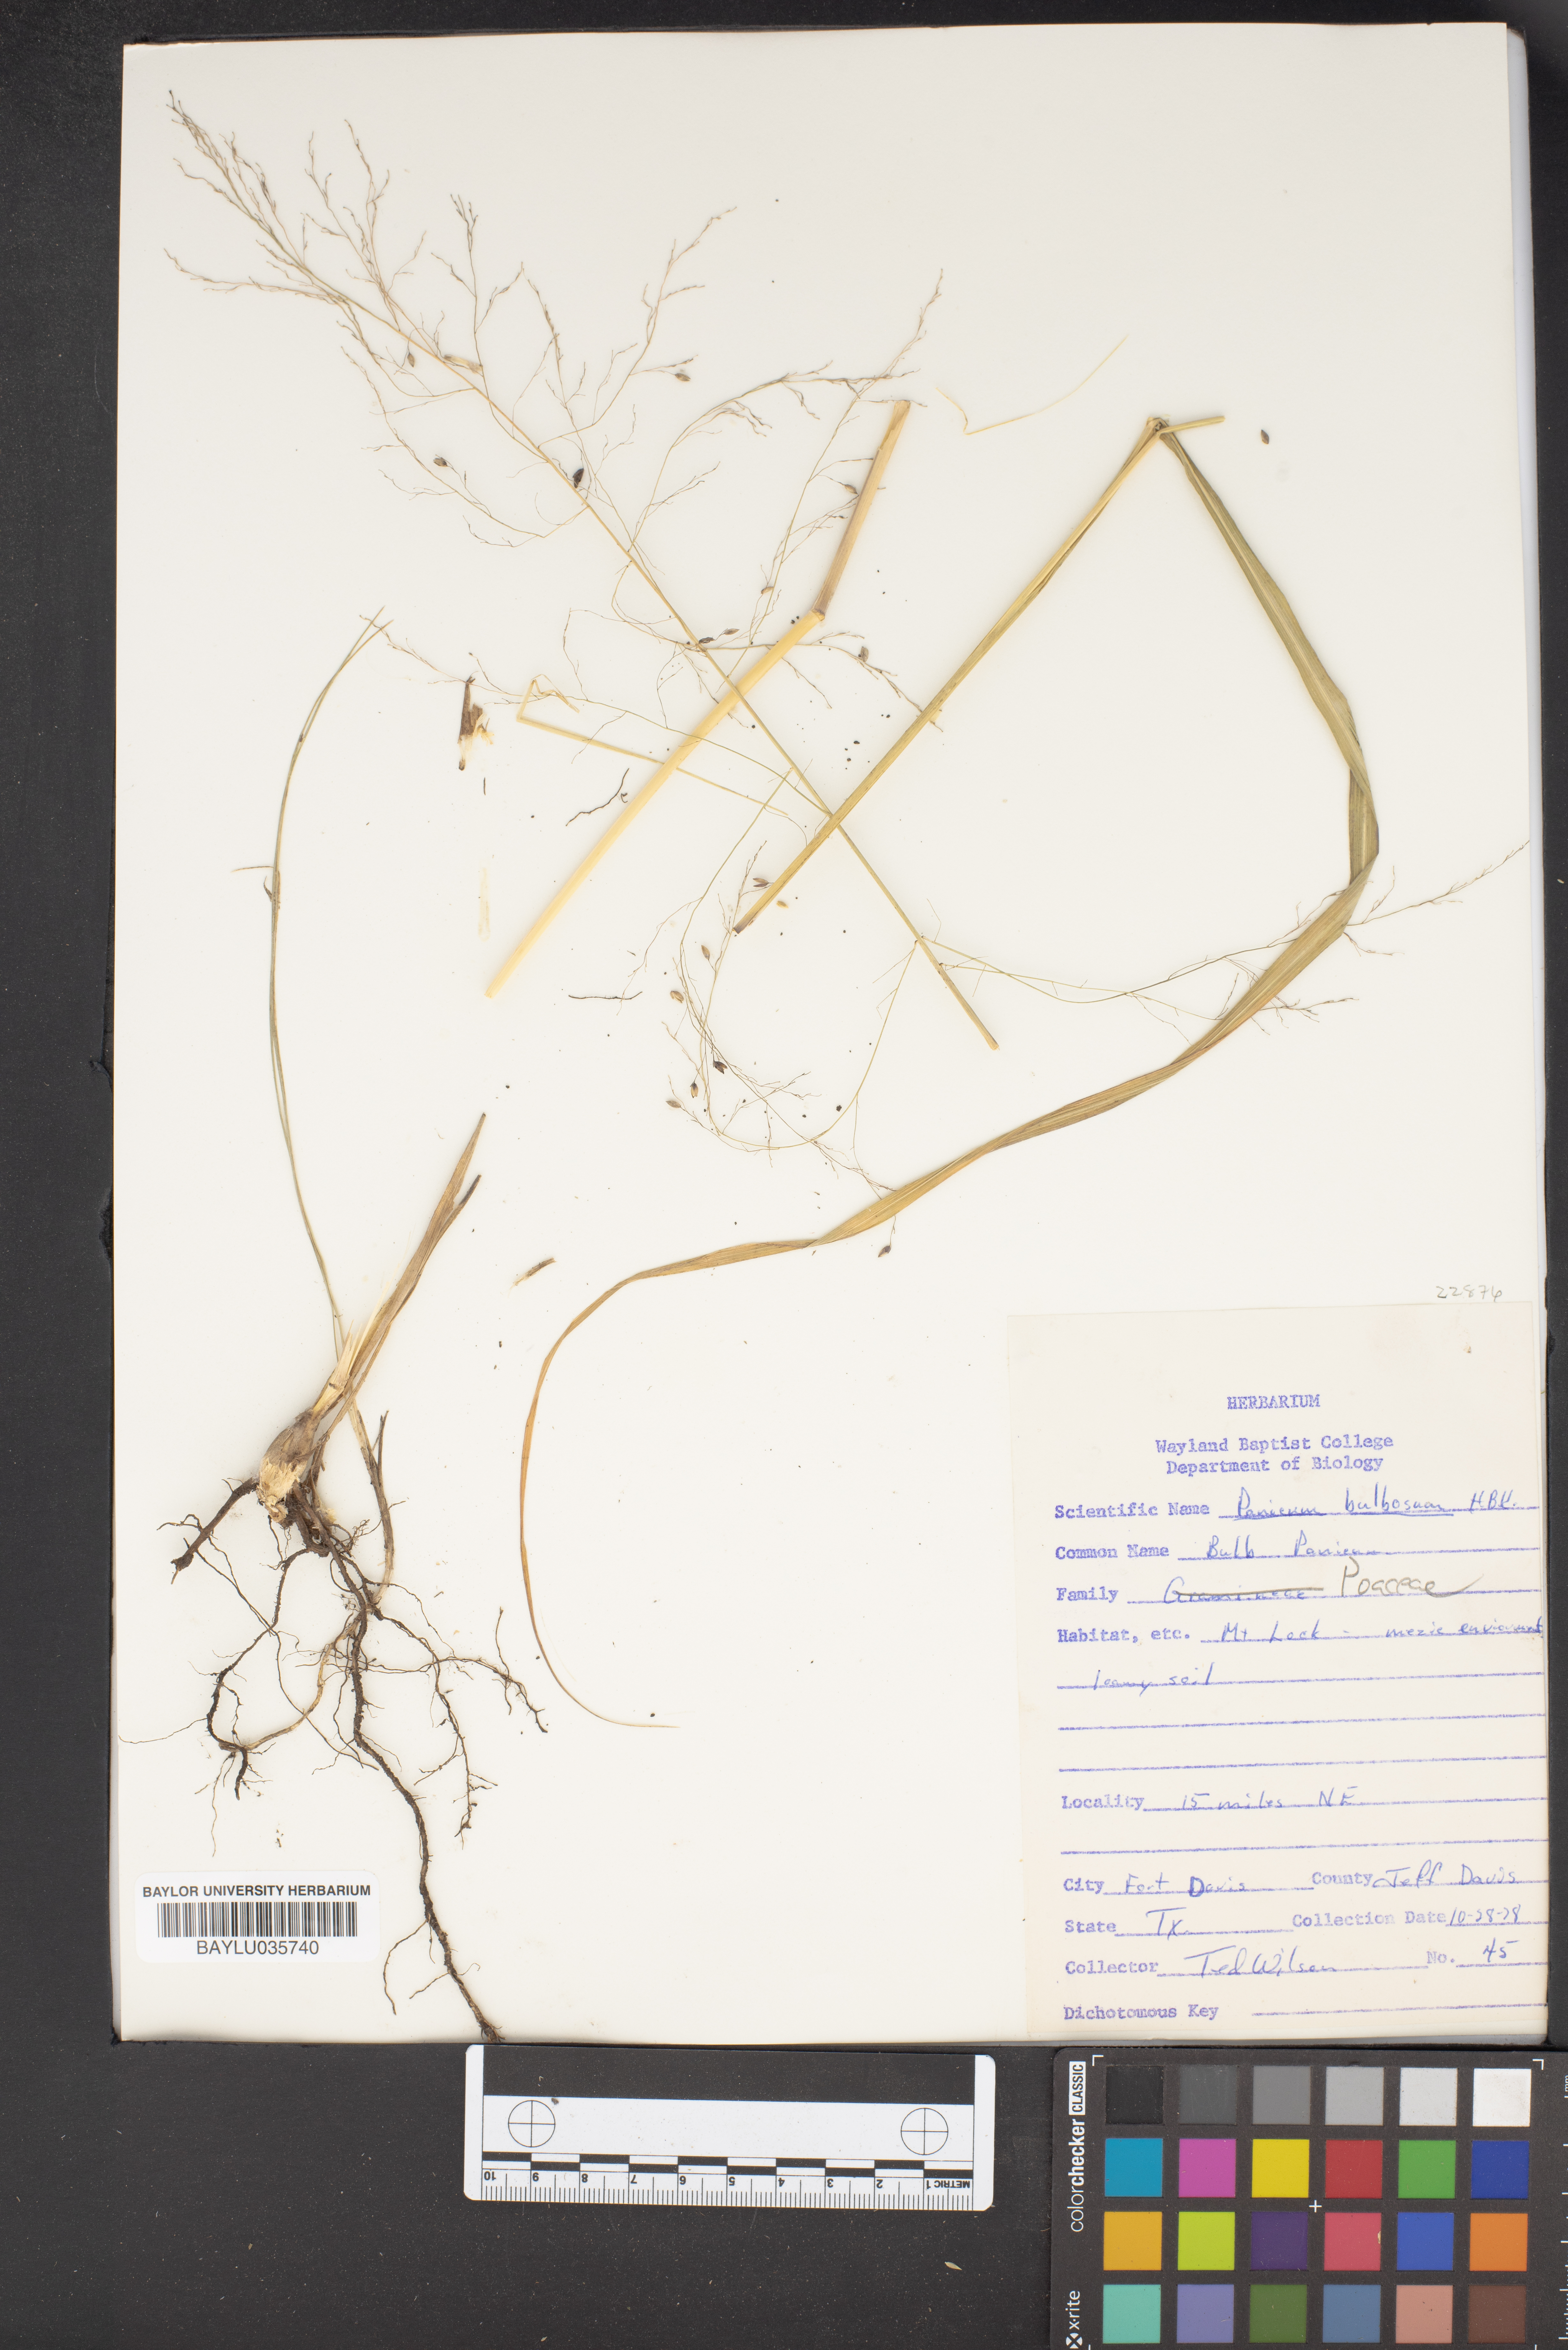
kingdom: Plantae
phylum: Tracheophyta
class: Liliopsida
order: Poales
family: Poaceae
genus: Zuloagaea
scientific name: Zuloagaea bulbosa
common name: Canyon panic grass
